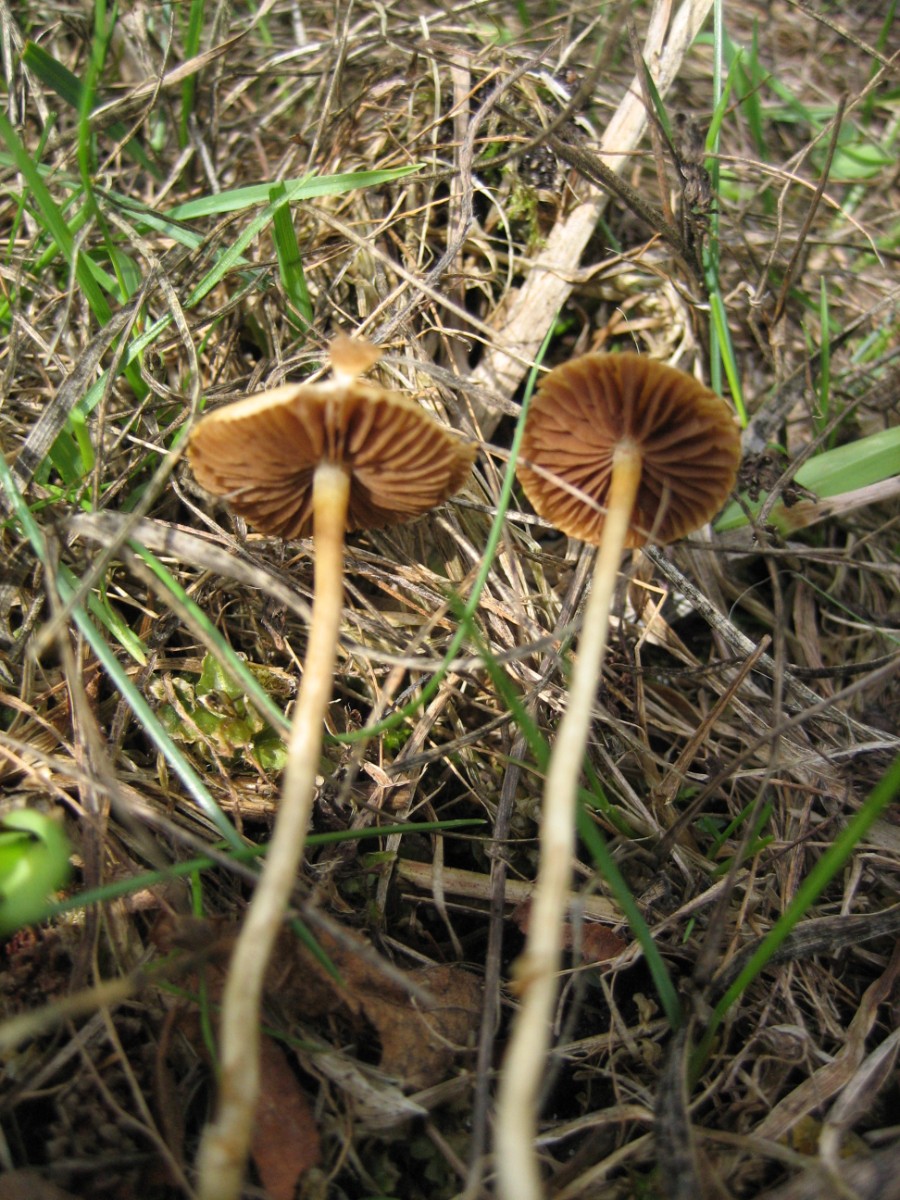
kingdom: Fungi
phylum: Basidiomycota
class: Agaricomycetes
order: Agaricales
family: Strophariaceae
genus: Agrocybe
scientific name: Agrocybe pediades
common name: almindelig agerhat
